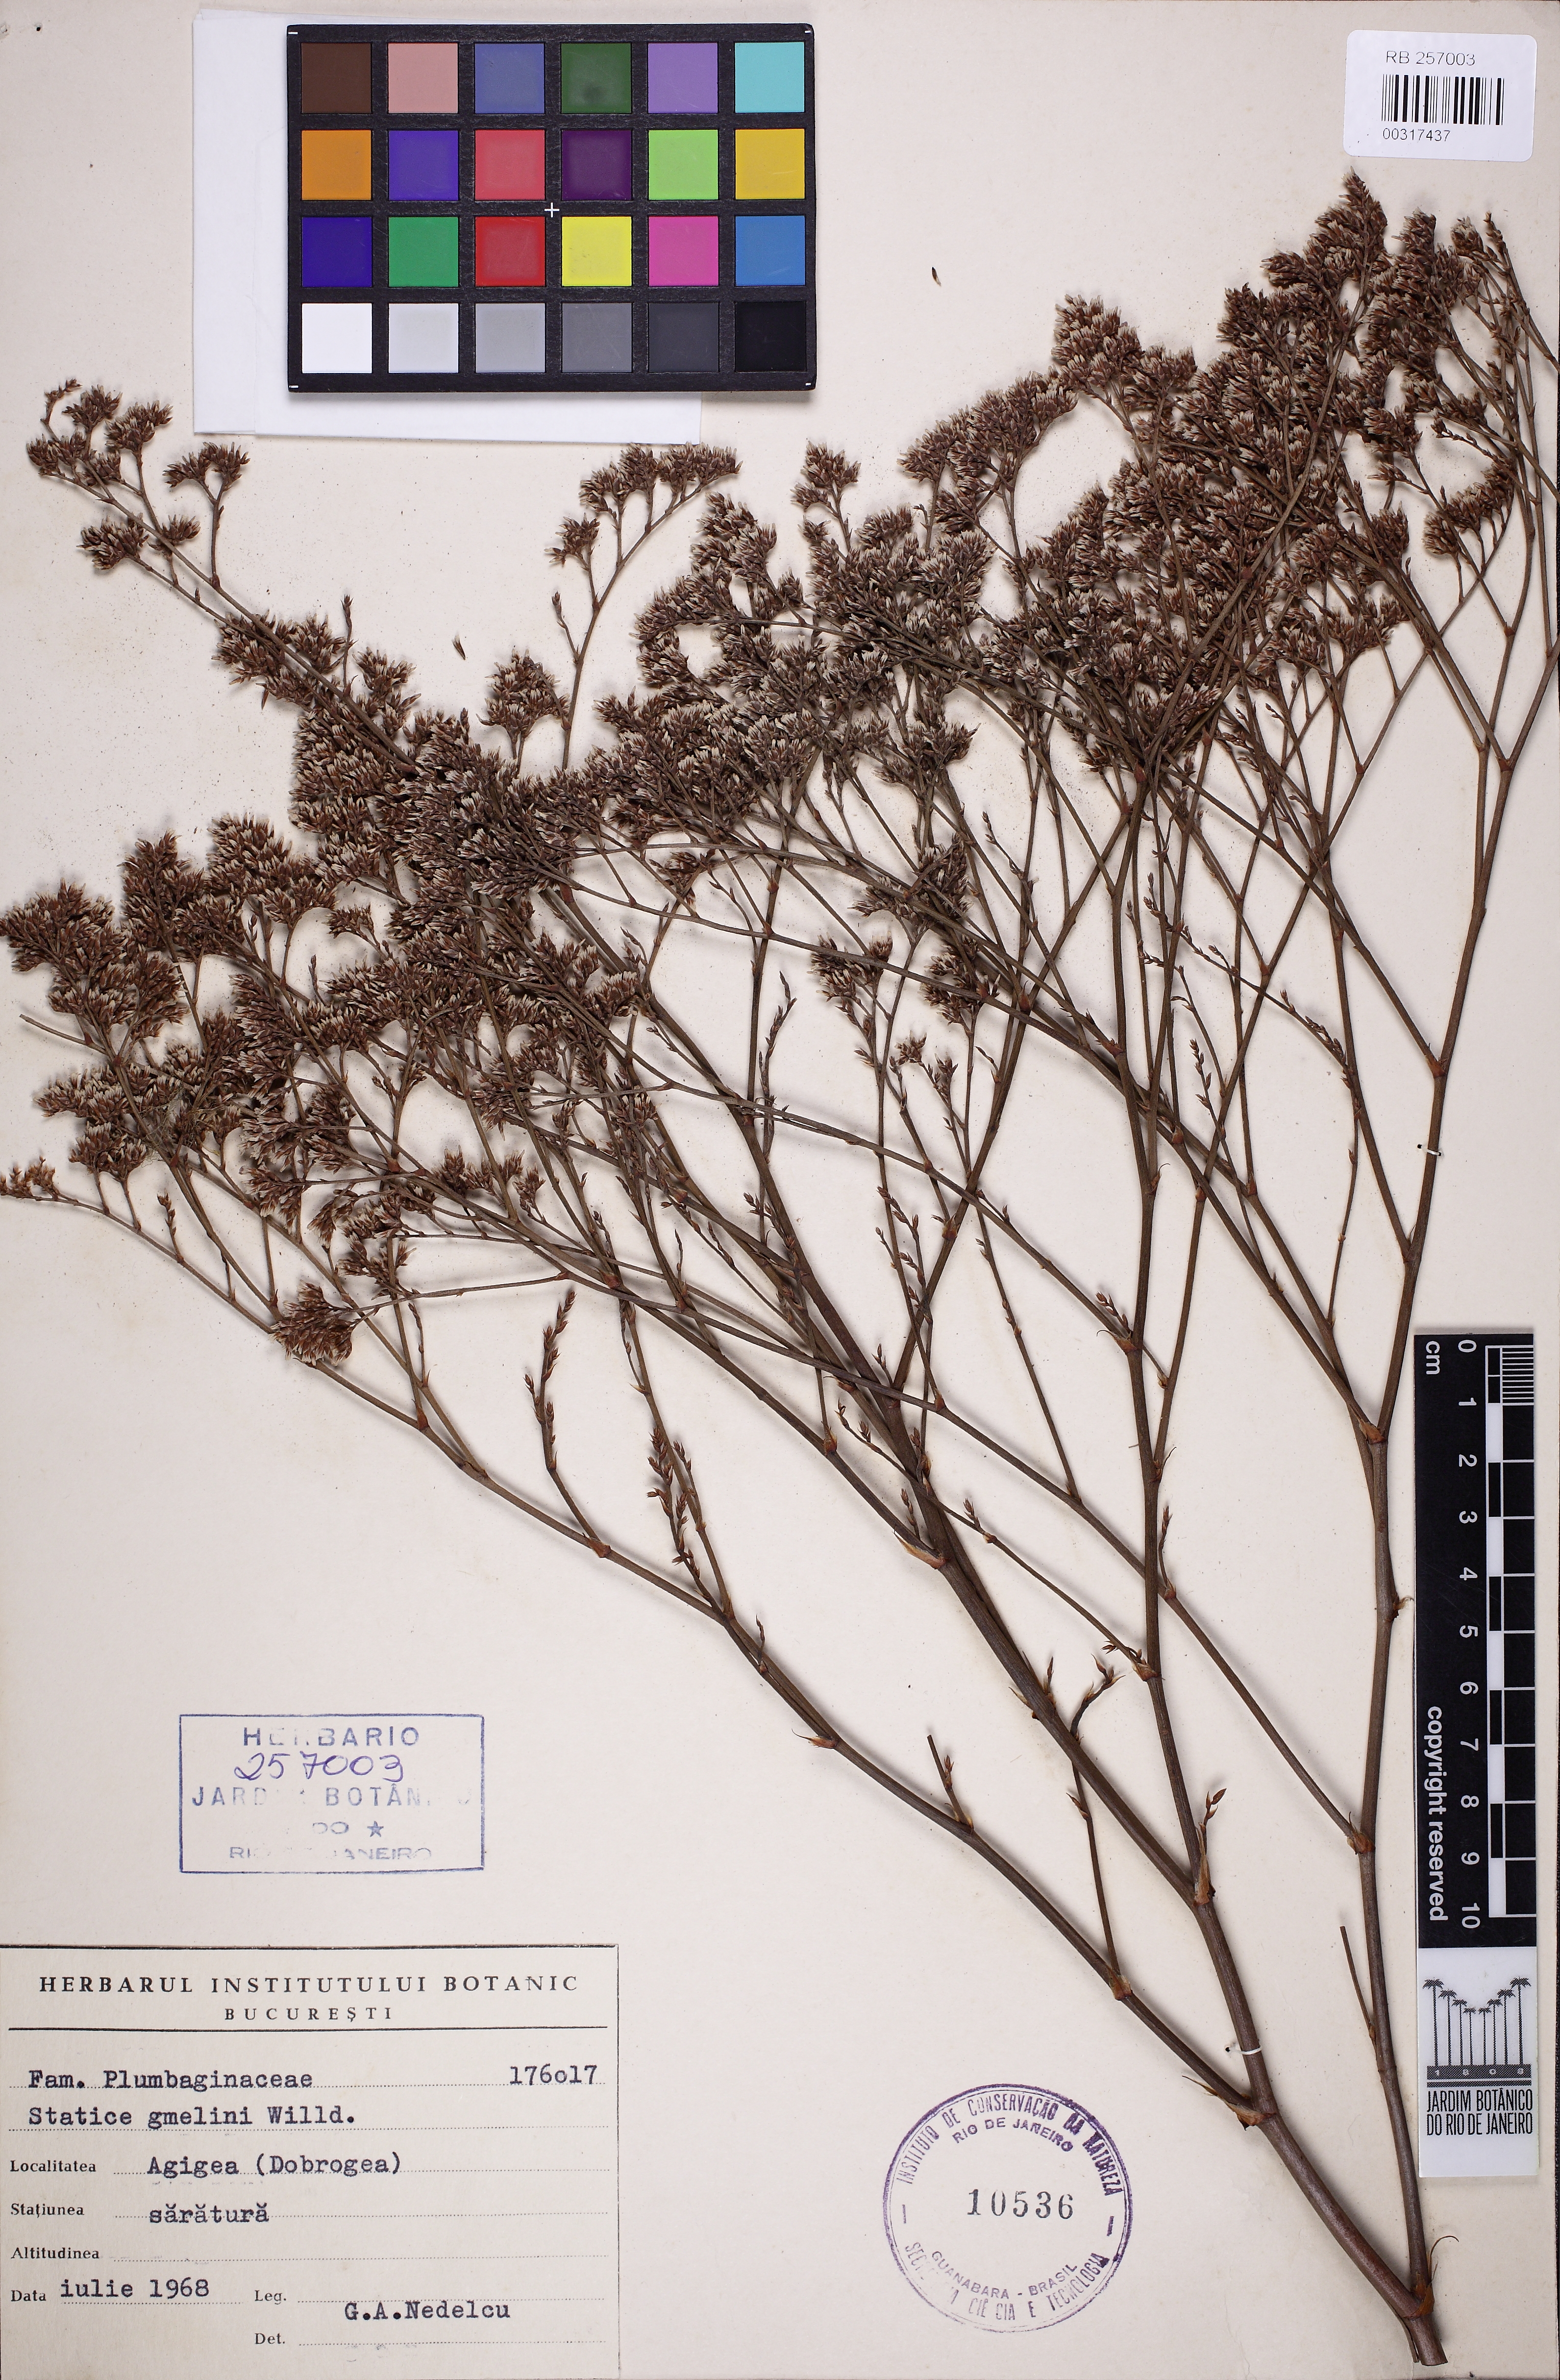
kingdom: Plantae
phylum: Tracheophyta
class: Magnoliopsida
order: Caryophyllales
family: Plumbaginaceae
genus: Limonium
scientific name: Limonium gmelini
